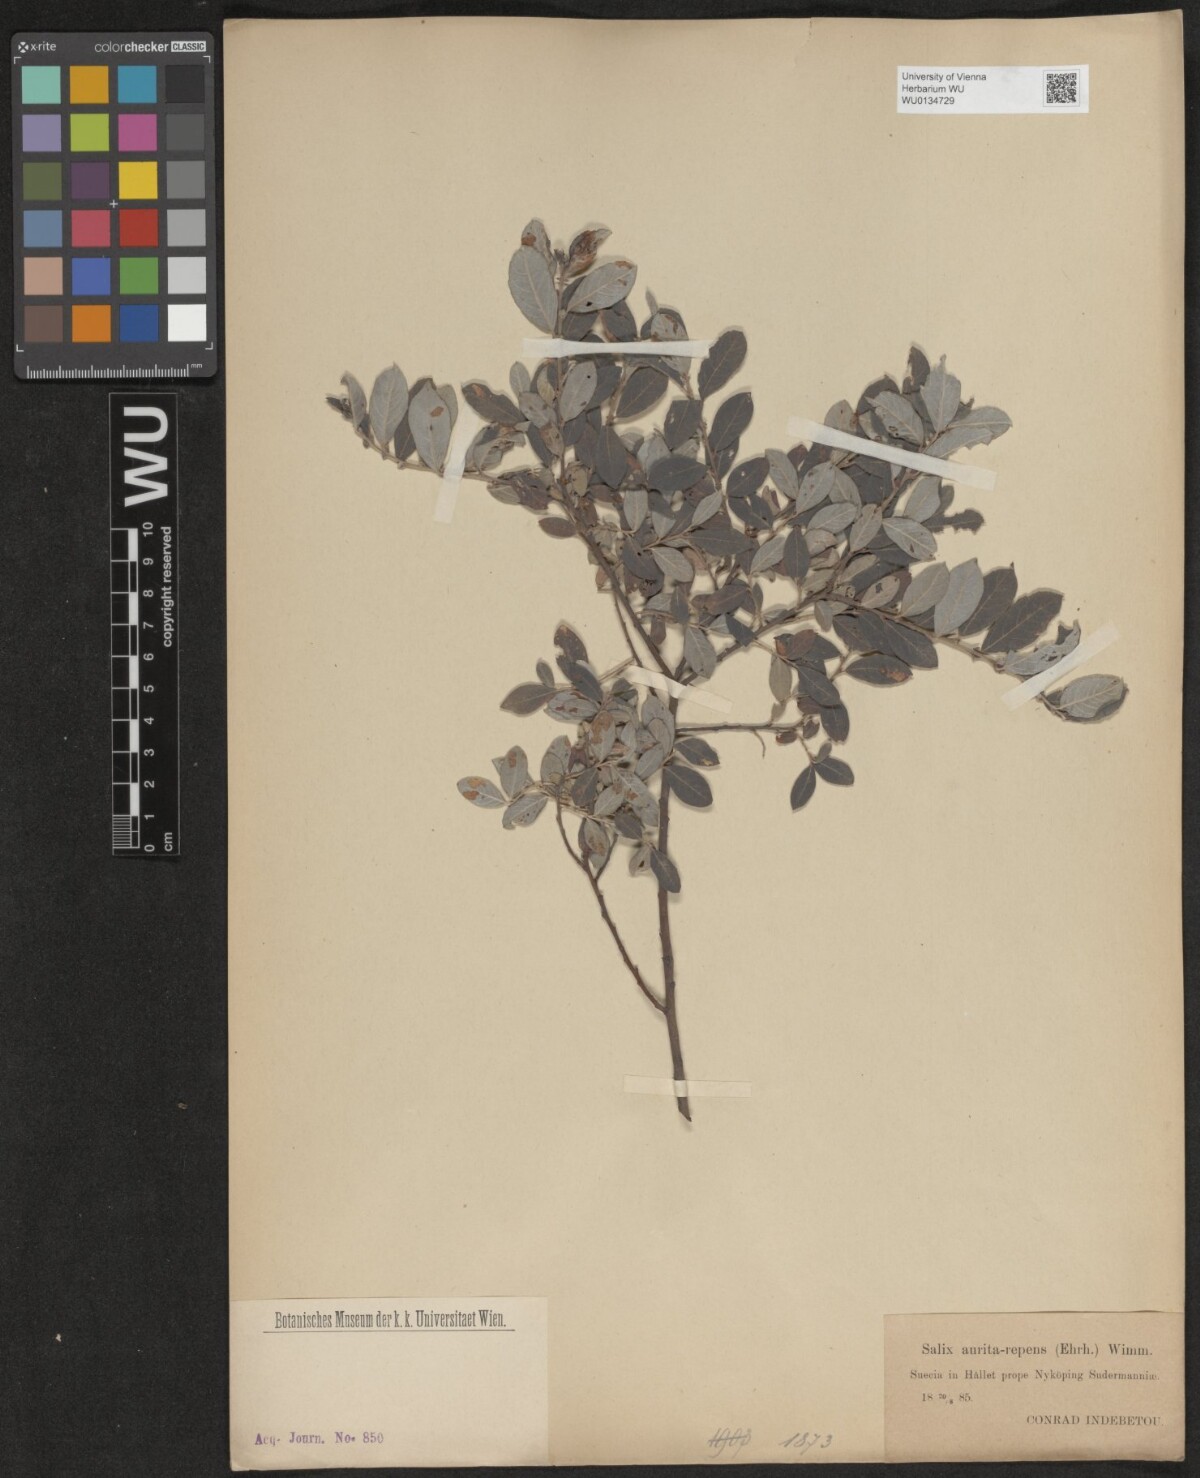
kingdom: Plantae
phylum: Tracheophyta
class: Magnoliopsida
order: Malpighiales
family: Salicaceae
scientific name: Salicaceae
